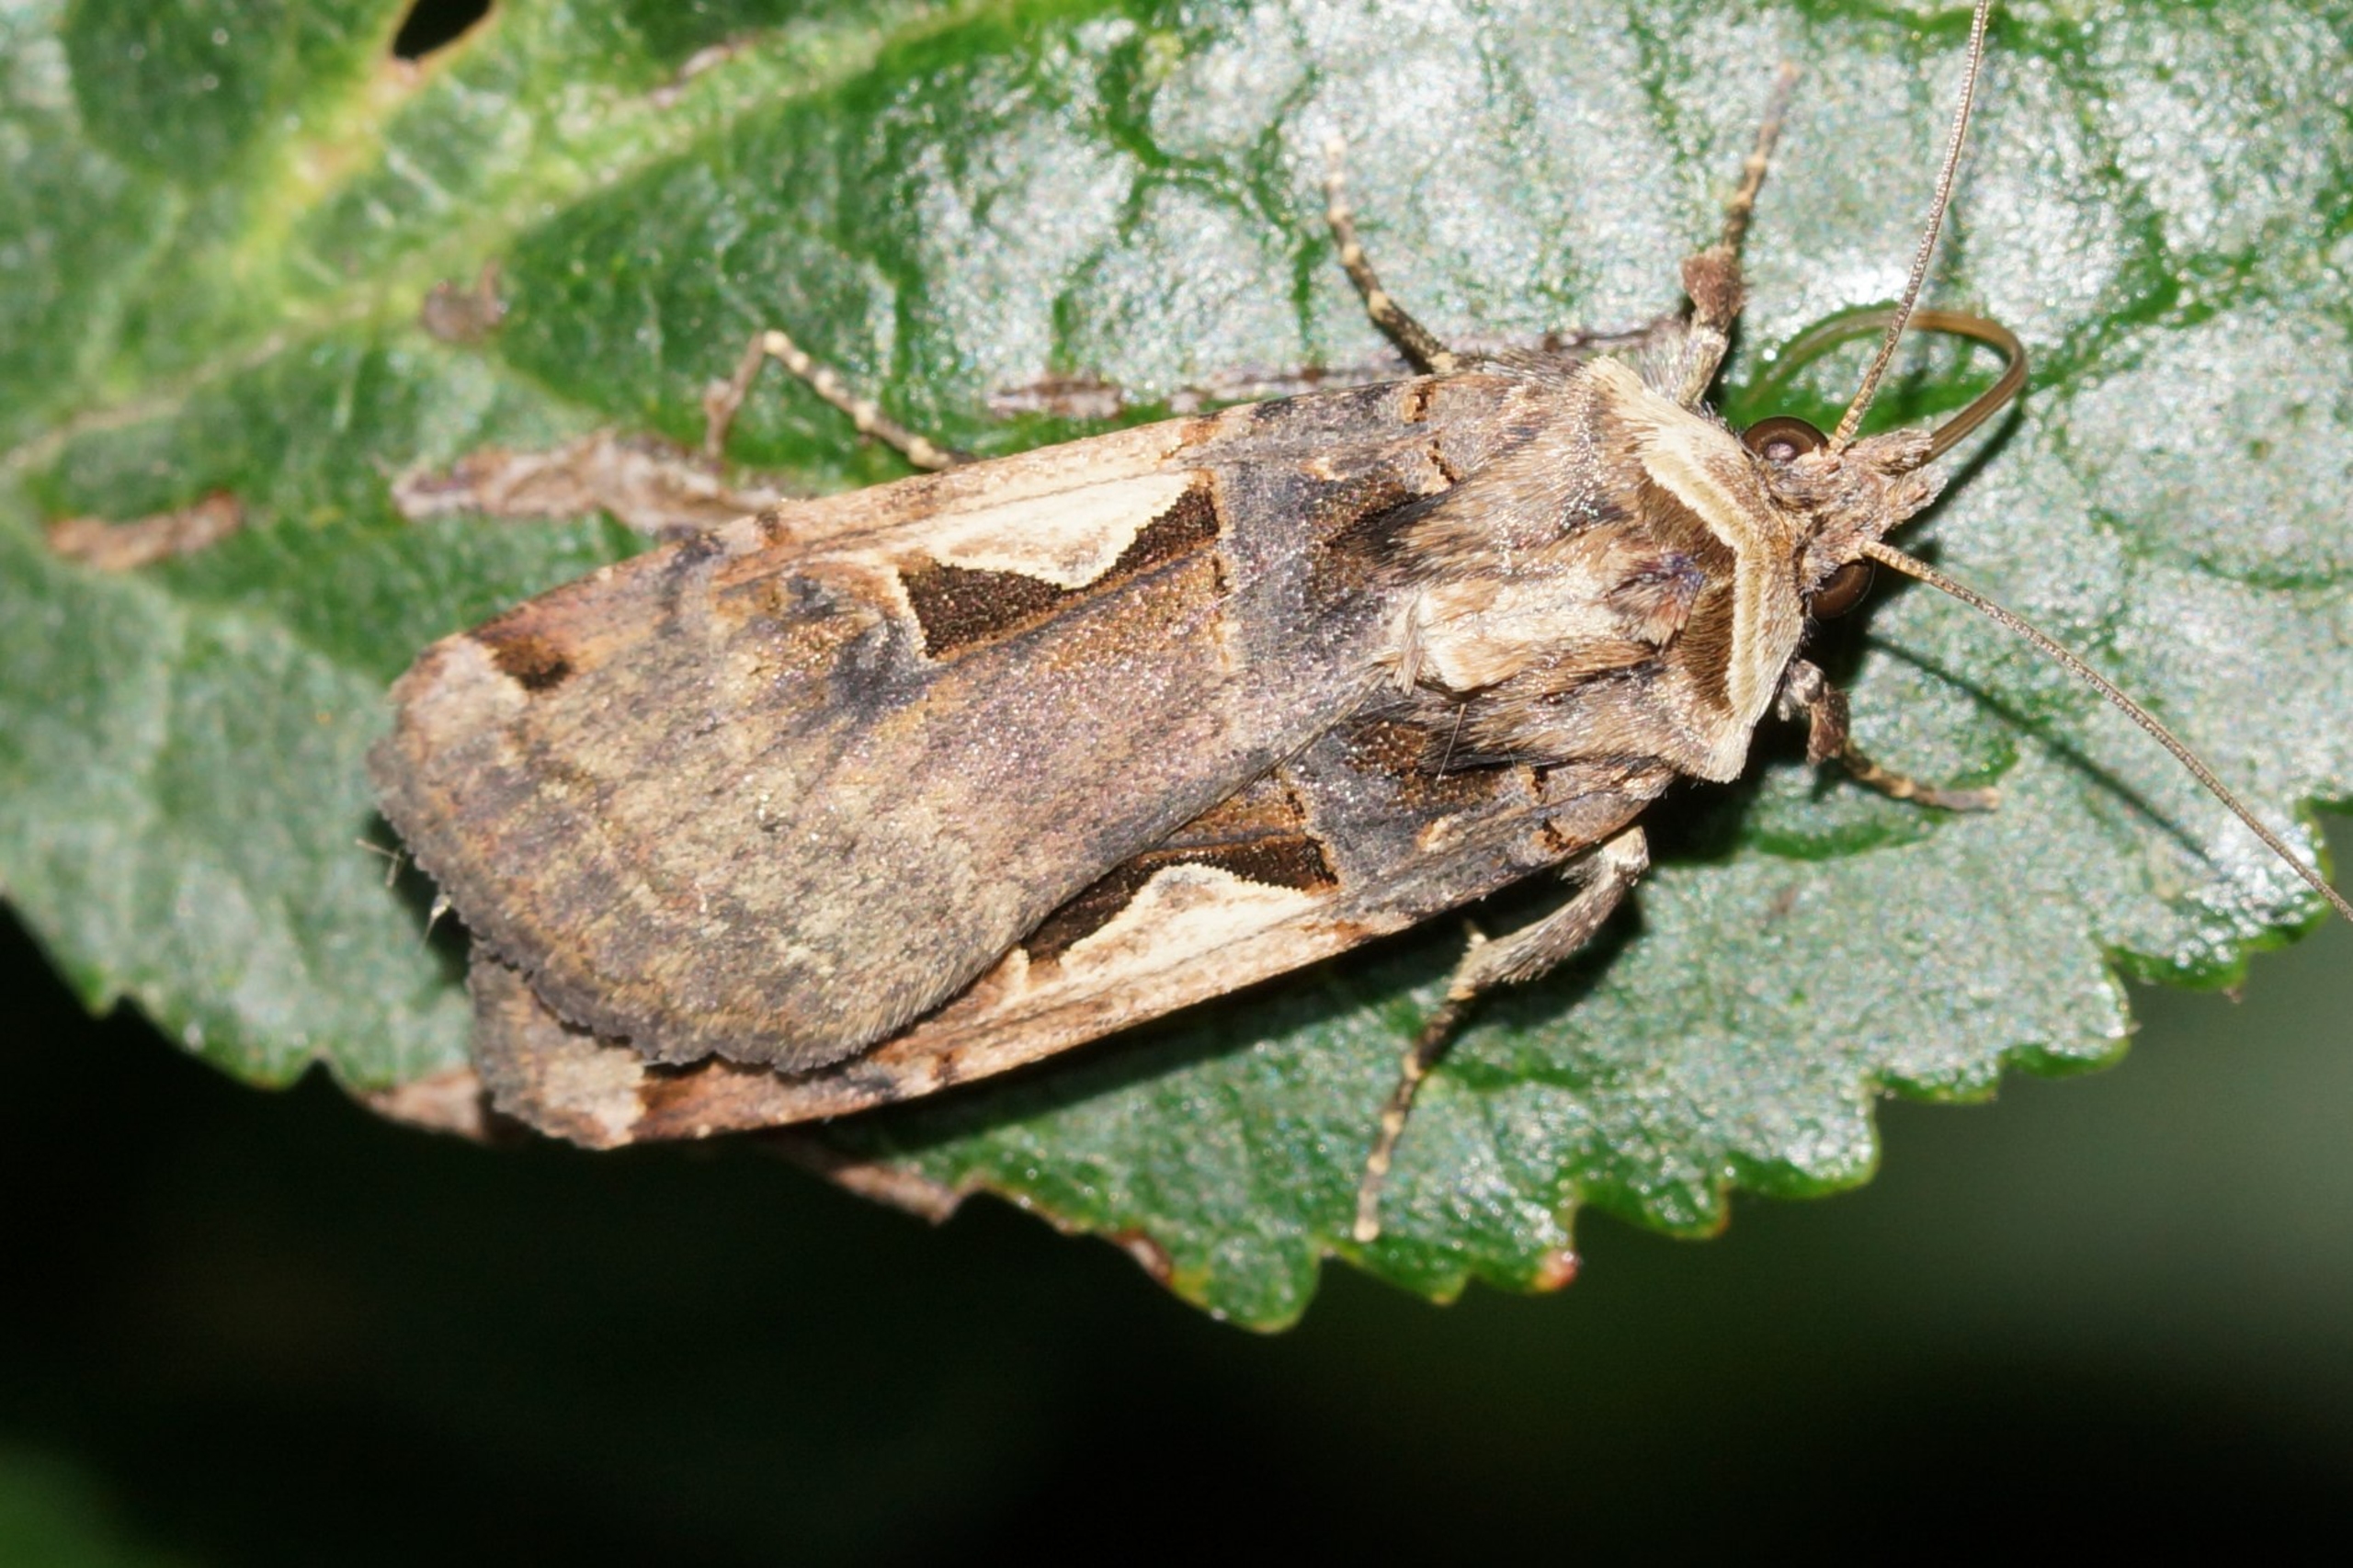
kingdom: Animalia
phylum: Arthropoda
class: Insecta
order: Lepidoptera
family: Noctuidae
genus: Xestia
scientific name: Xestia c-nigrum
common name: Det sorte c
